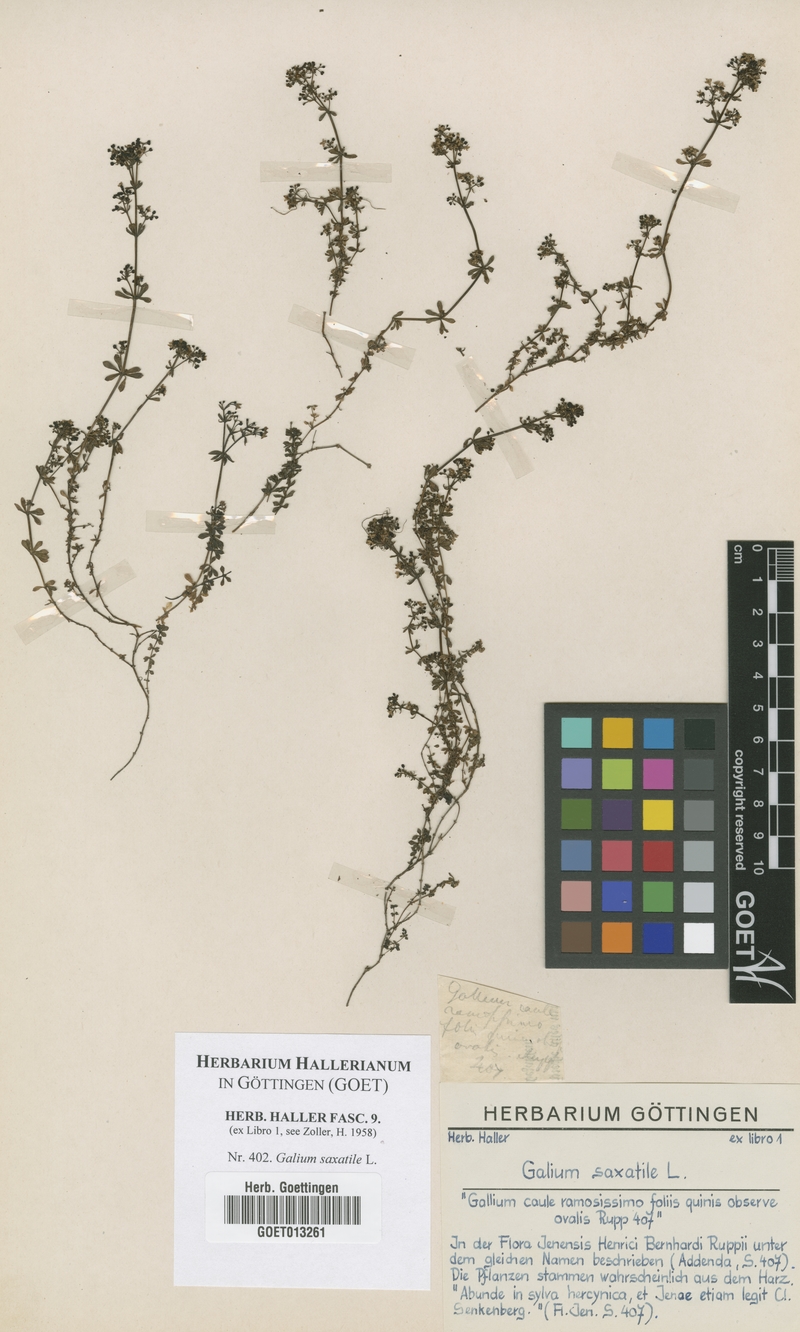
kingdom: Plantae
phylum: Tracheophyta
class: Magnoliopsida
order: Gentianales
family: Rubiaceae
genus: Galium
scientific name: Galium saxatile
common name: Heath bedstraw
